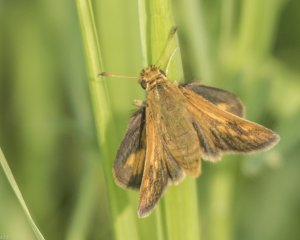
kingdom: Animalia
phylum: Arthropoda
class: Insecta
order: Lepidoptera
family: Hesperiidae
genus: Polites
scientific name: Polites coras
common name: Peck's Skipper
